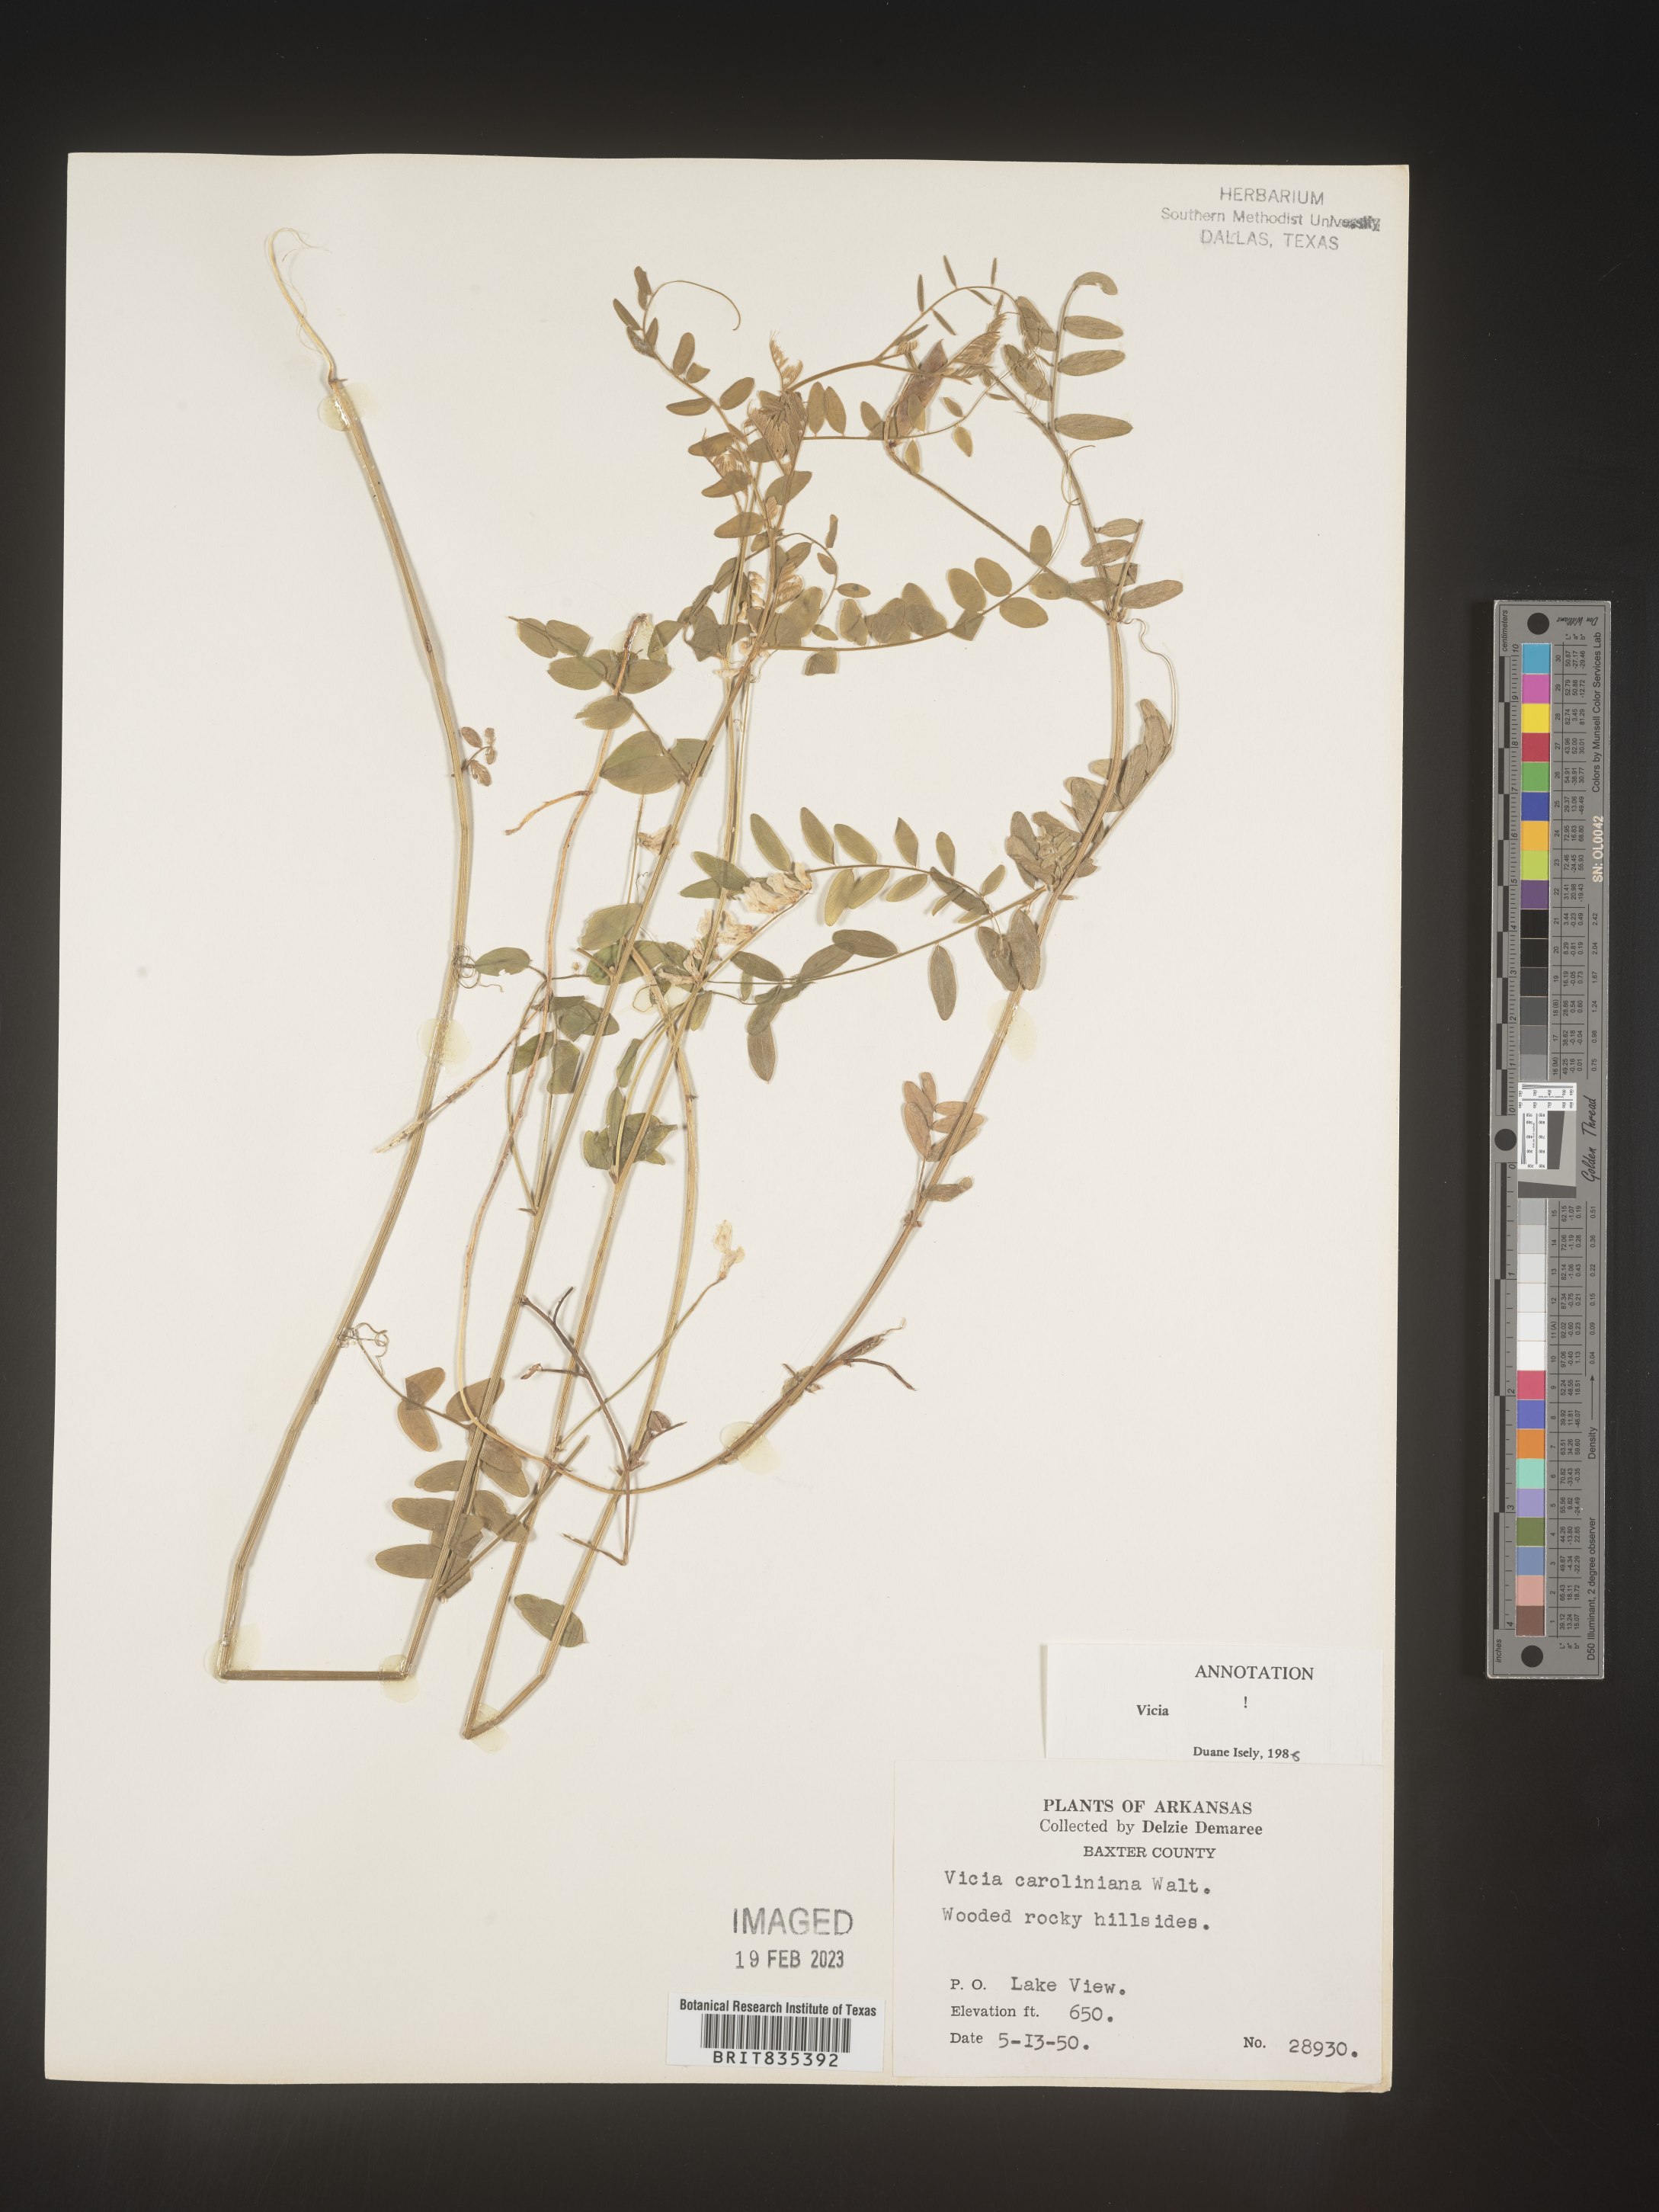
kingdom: Plantae
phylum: Tracheophyta
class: Magnoliopsida
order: Fabales
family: Fabaceae
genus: Vicia
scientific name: Vicia caroliniana
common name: Carolina vetch
